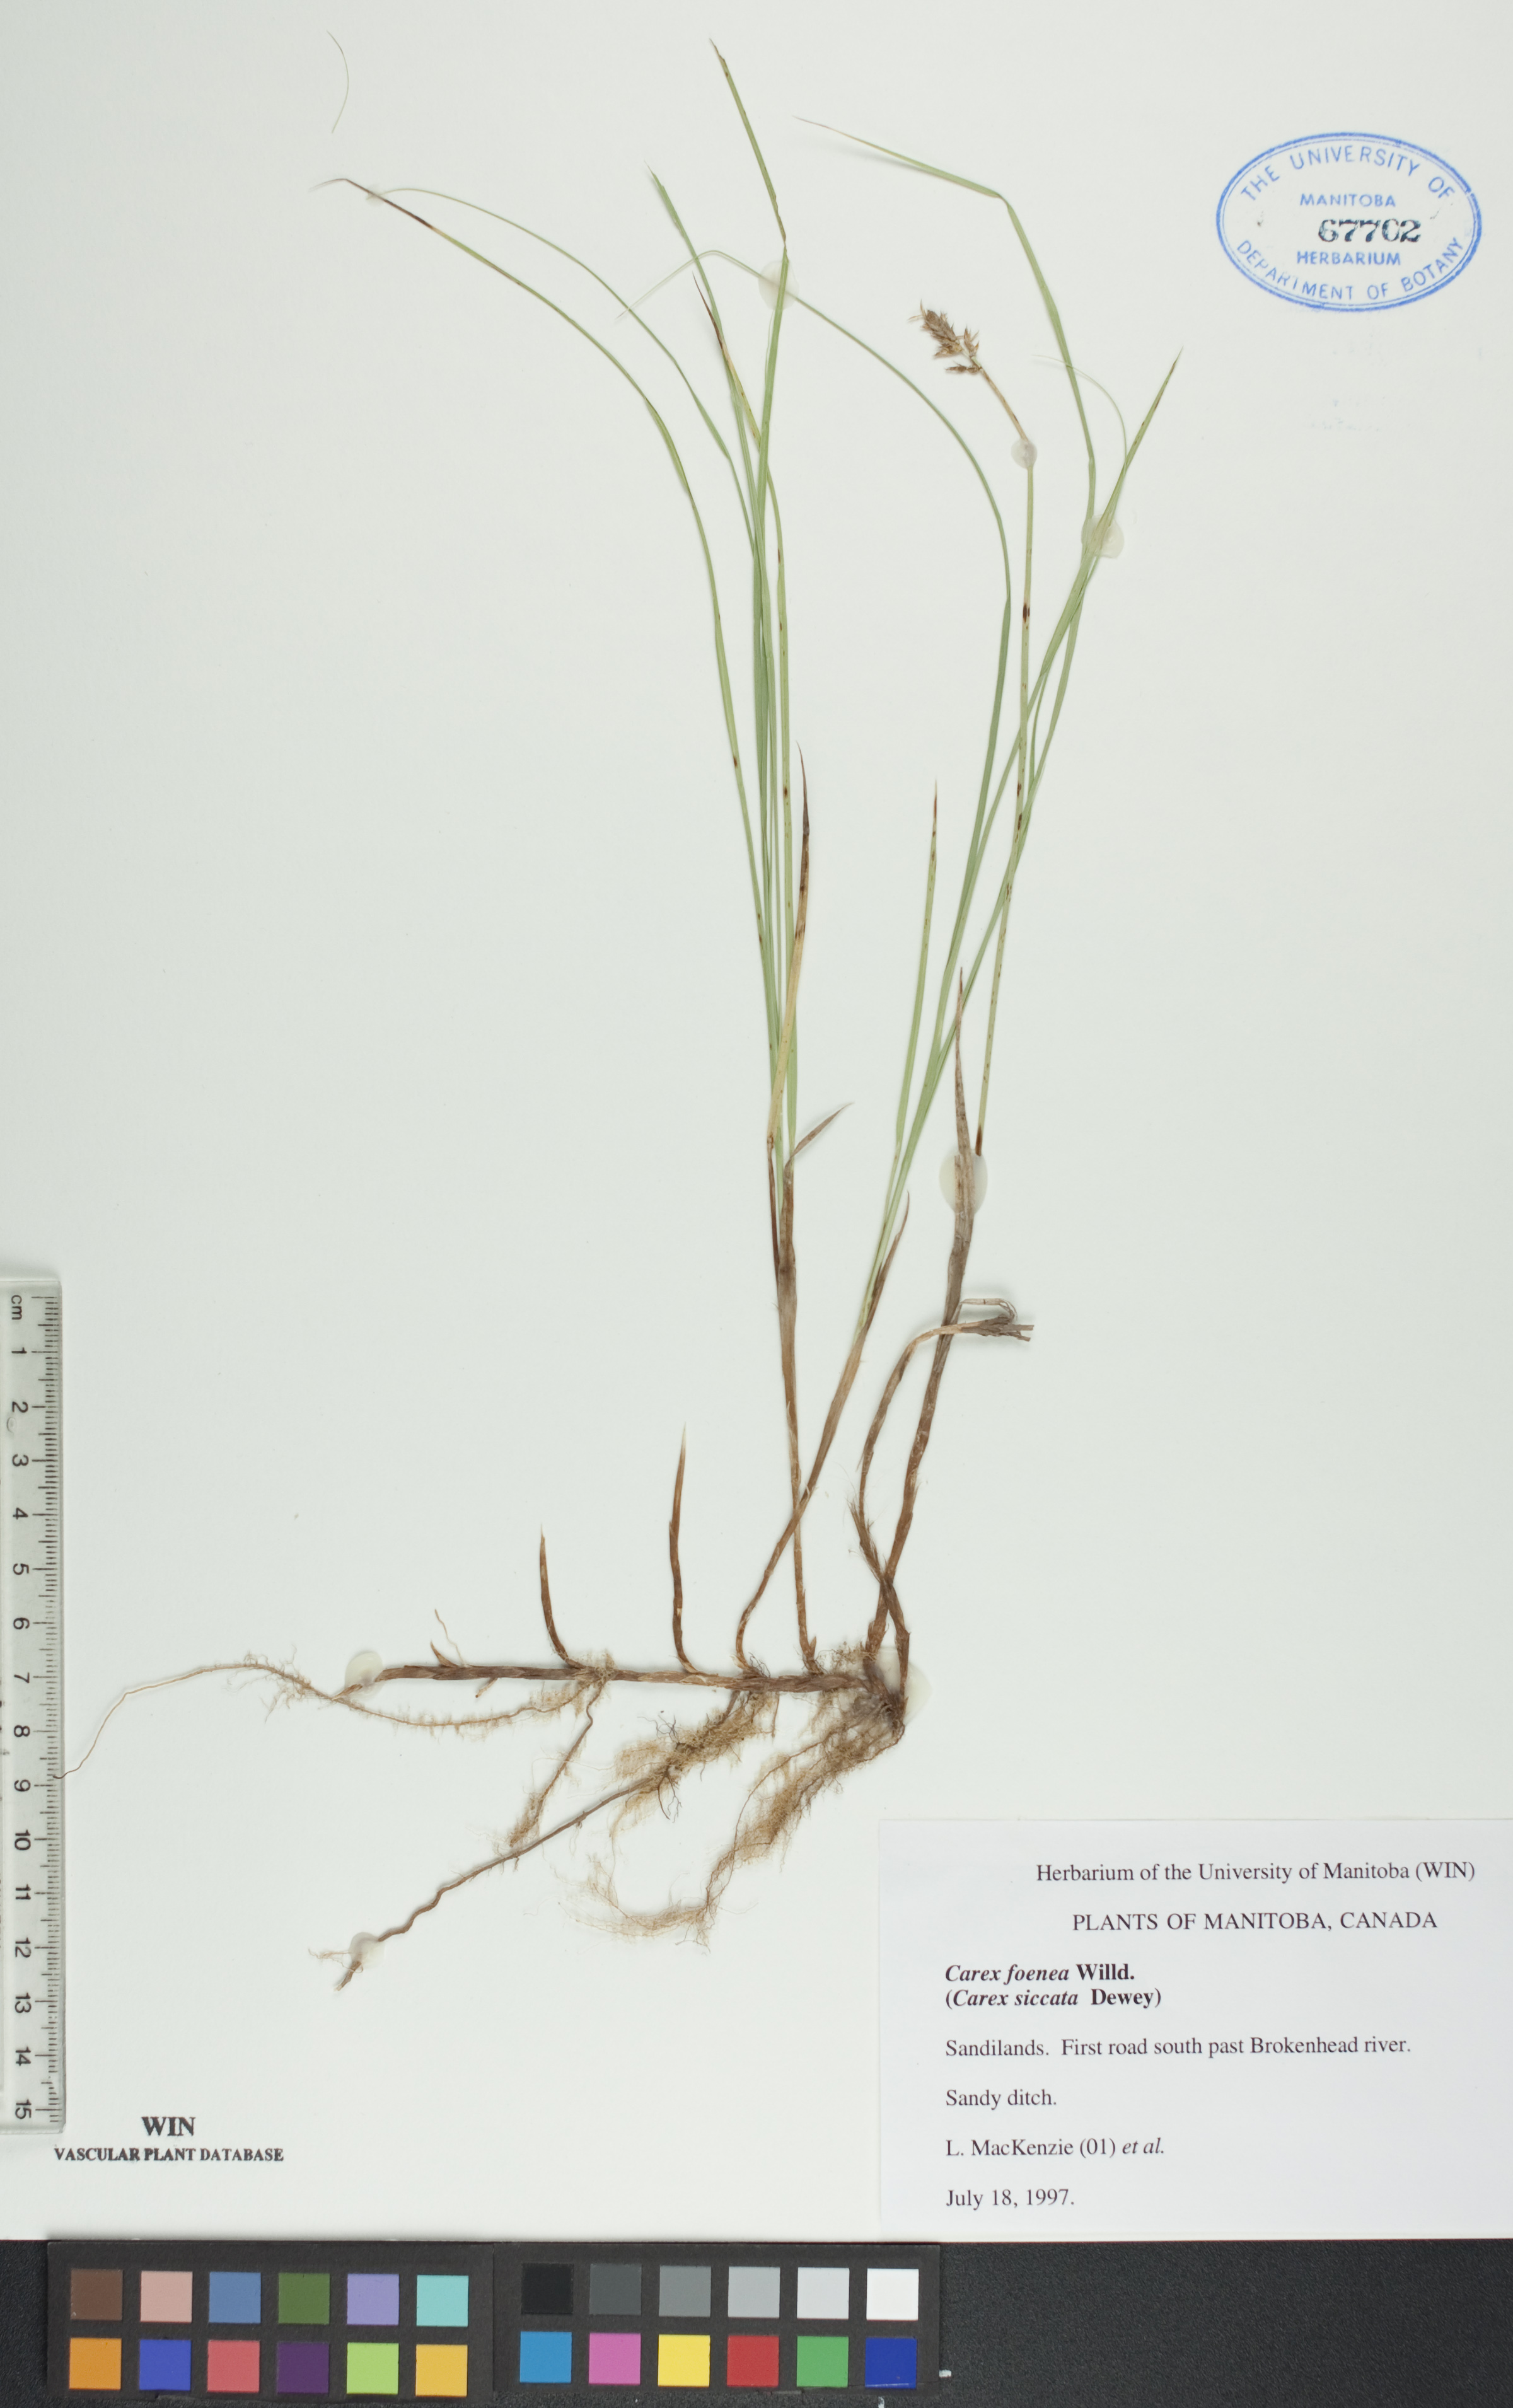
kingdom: Plantae
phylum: Tracheophyta
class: Liliopsida
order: Poales
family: Cyperaceae
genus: Carex
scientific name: Carex foenea
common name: Bronze sedge
